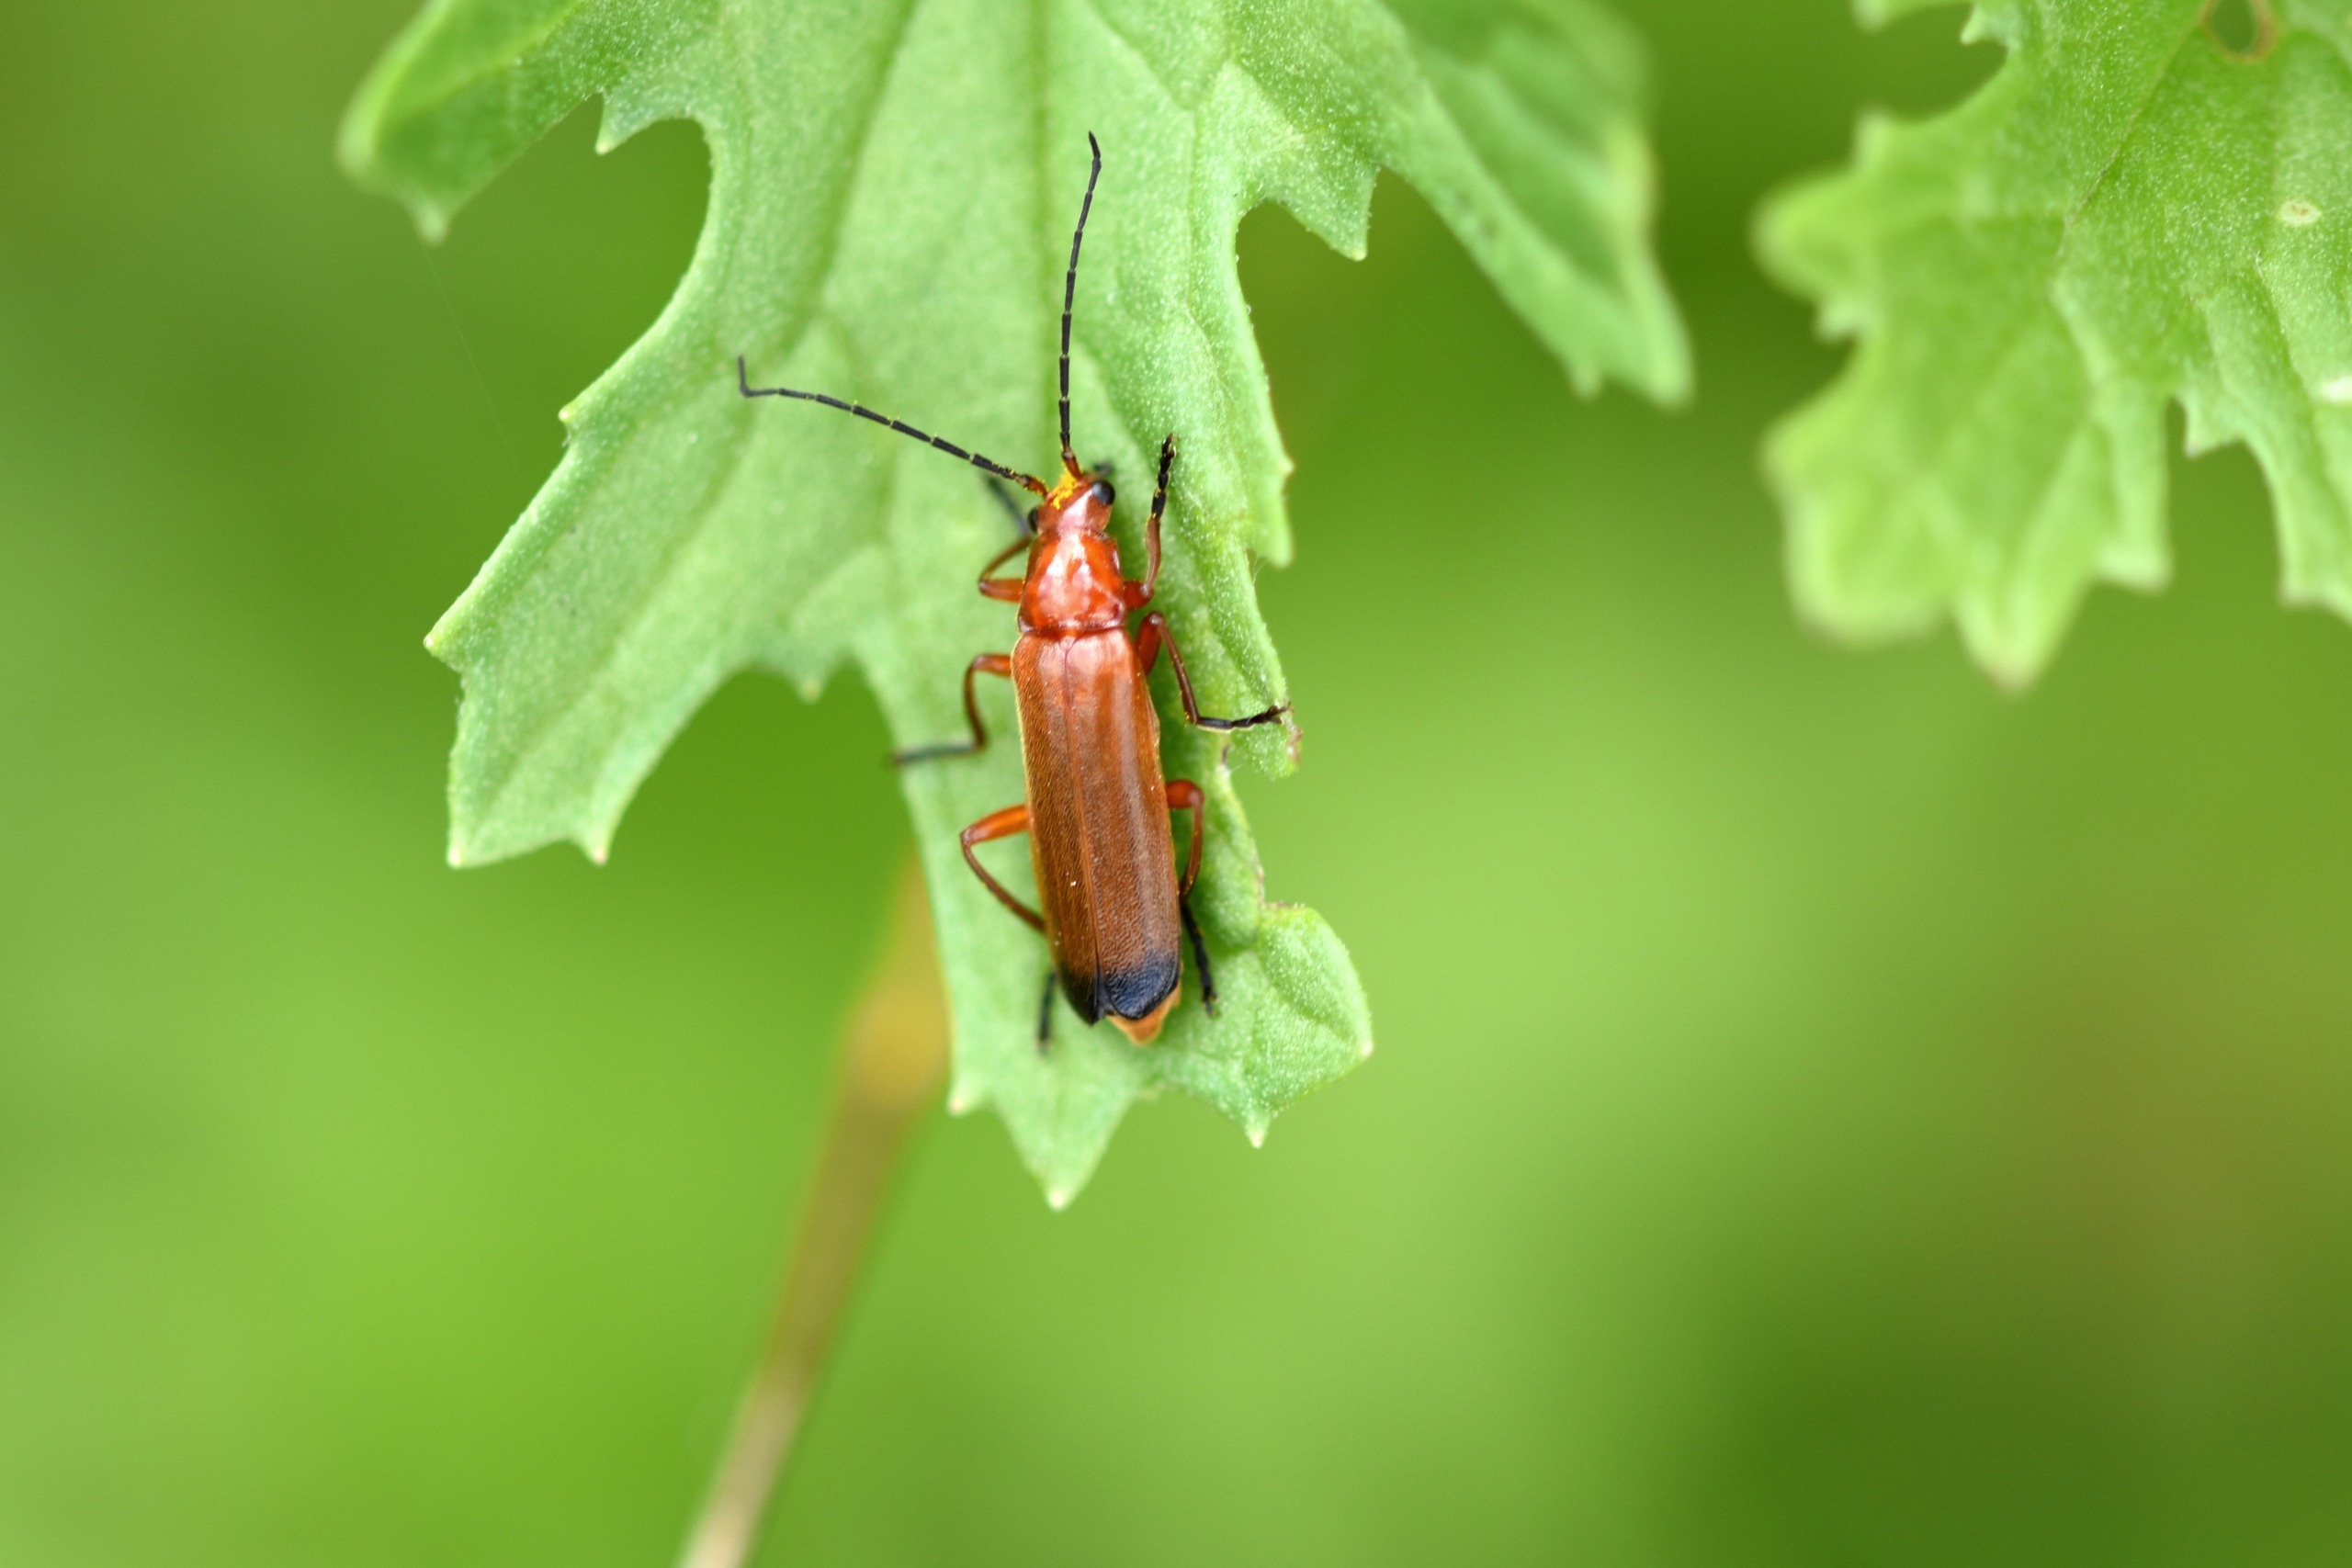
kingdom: Animalia
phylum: Arthropoda
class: Insecta
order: Coleoptera
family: Cantharidae
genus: Rhagonycha
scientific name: Rhagonycha fulva
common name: Præstebille
